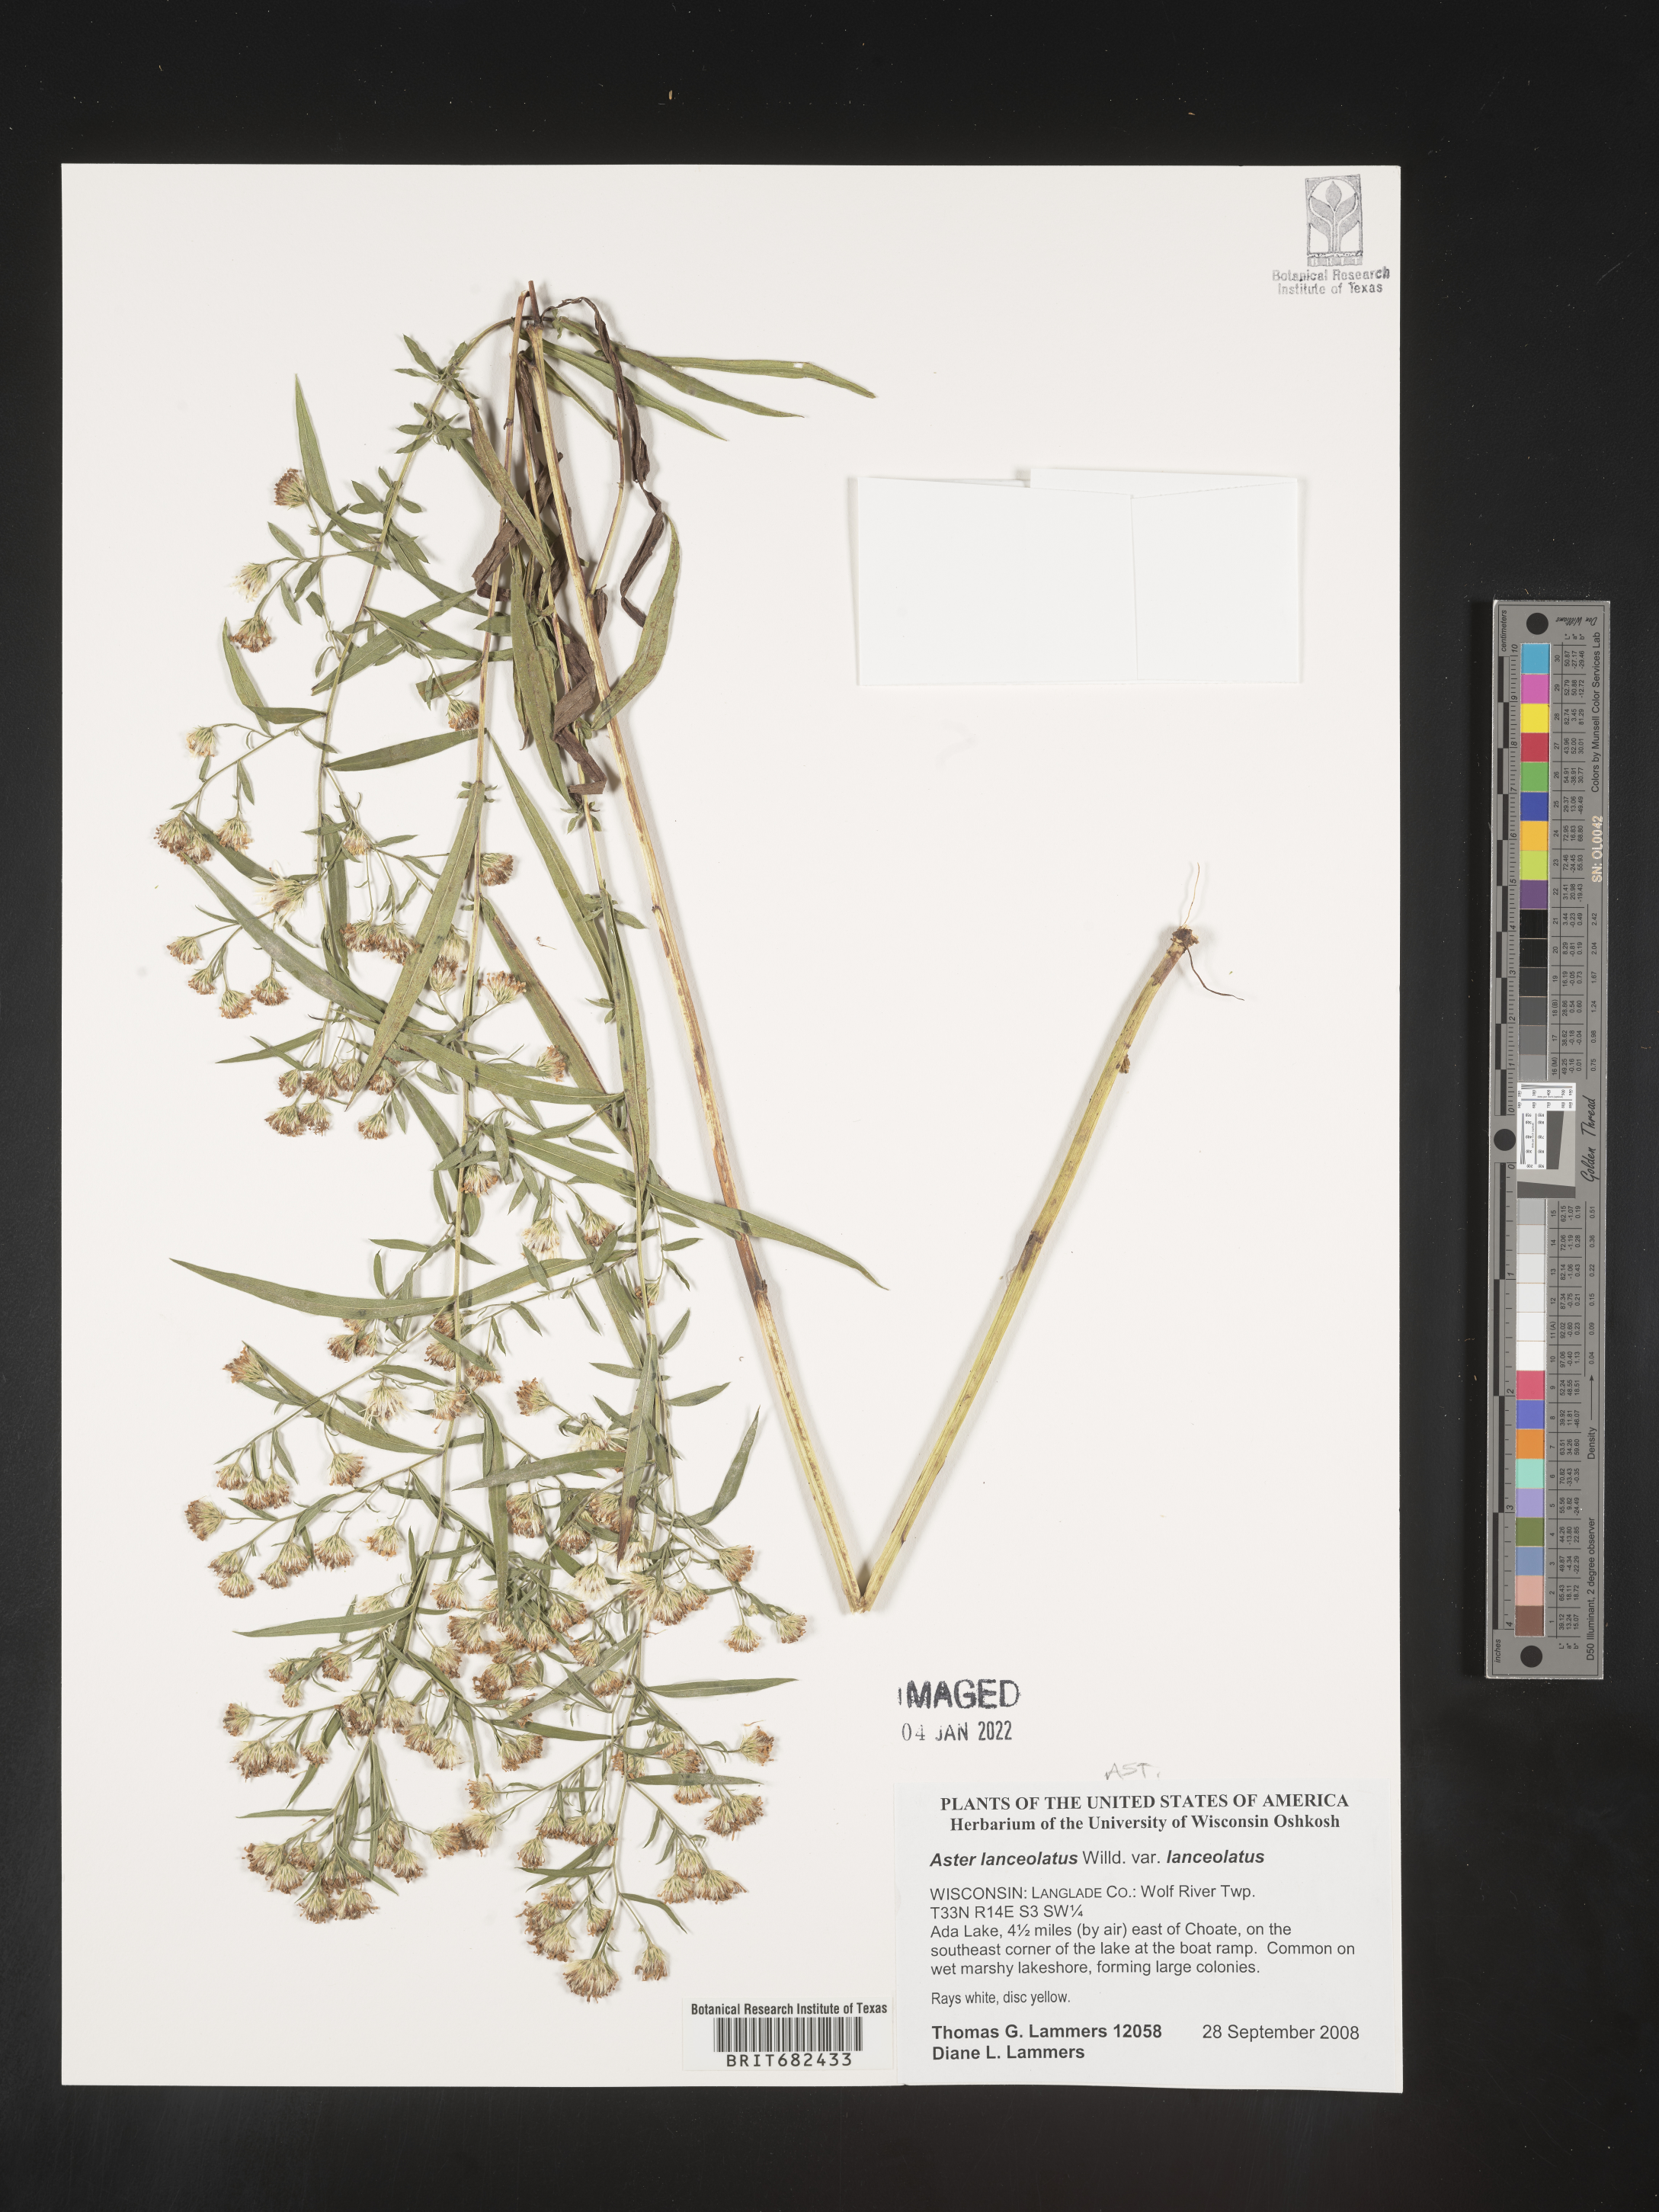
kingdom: Plantae
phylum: Tracheophyta
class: Magnoliopsida
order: Asterales
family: Asteraceae
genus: Aster
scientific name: Aster
